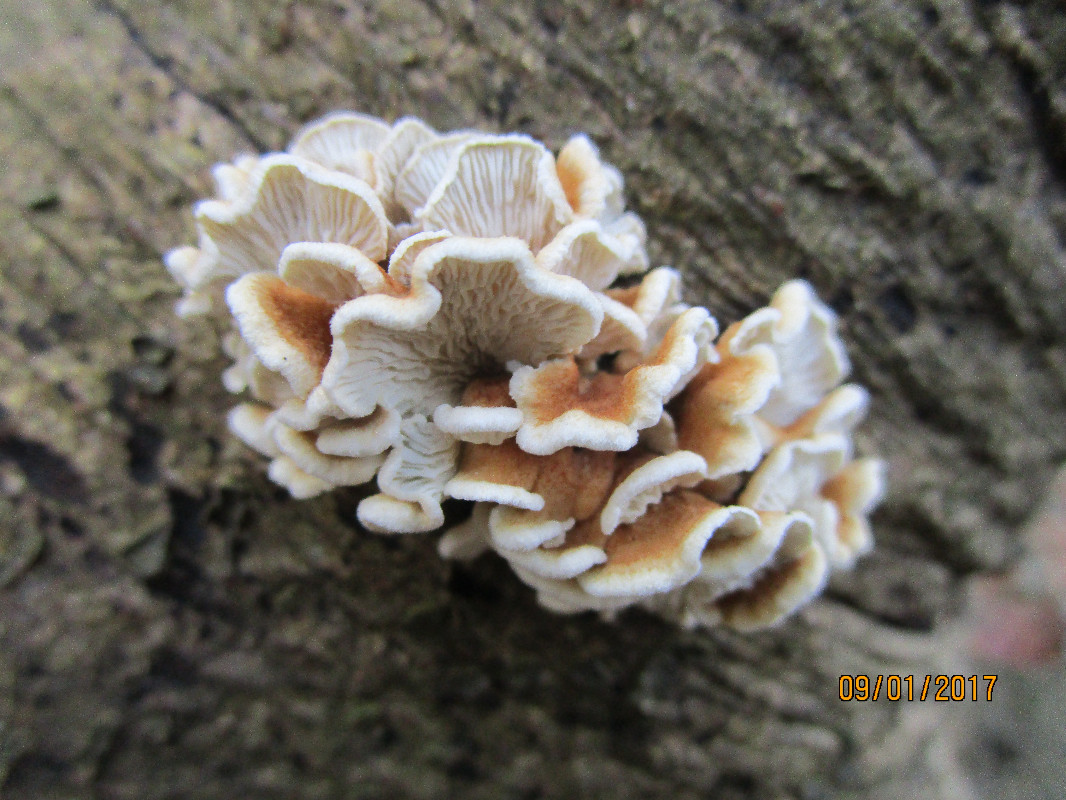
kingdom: Fungi
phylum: Basidiomycota
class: Agaricomycetes
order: Amylocorticiales
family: Amylocorticiaceae
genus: Plicaturopsis
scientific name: Plicaturopsis crispa
